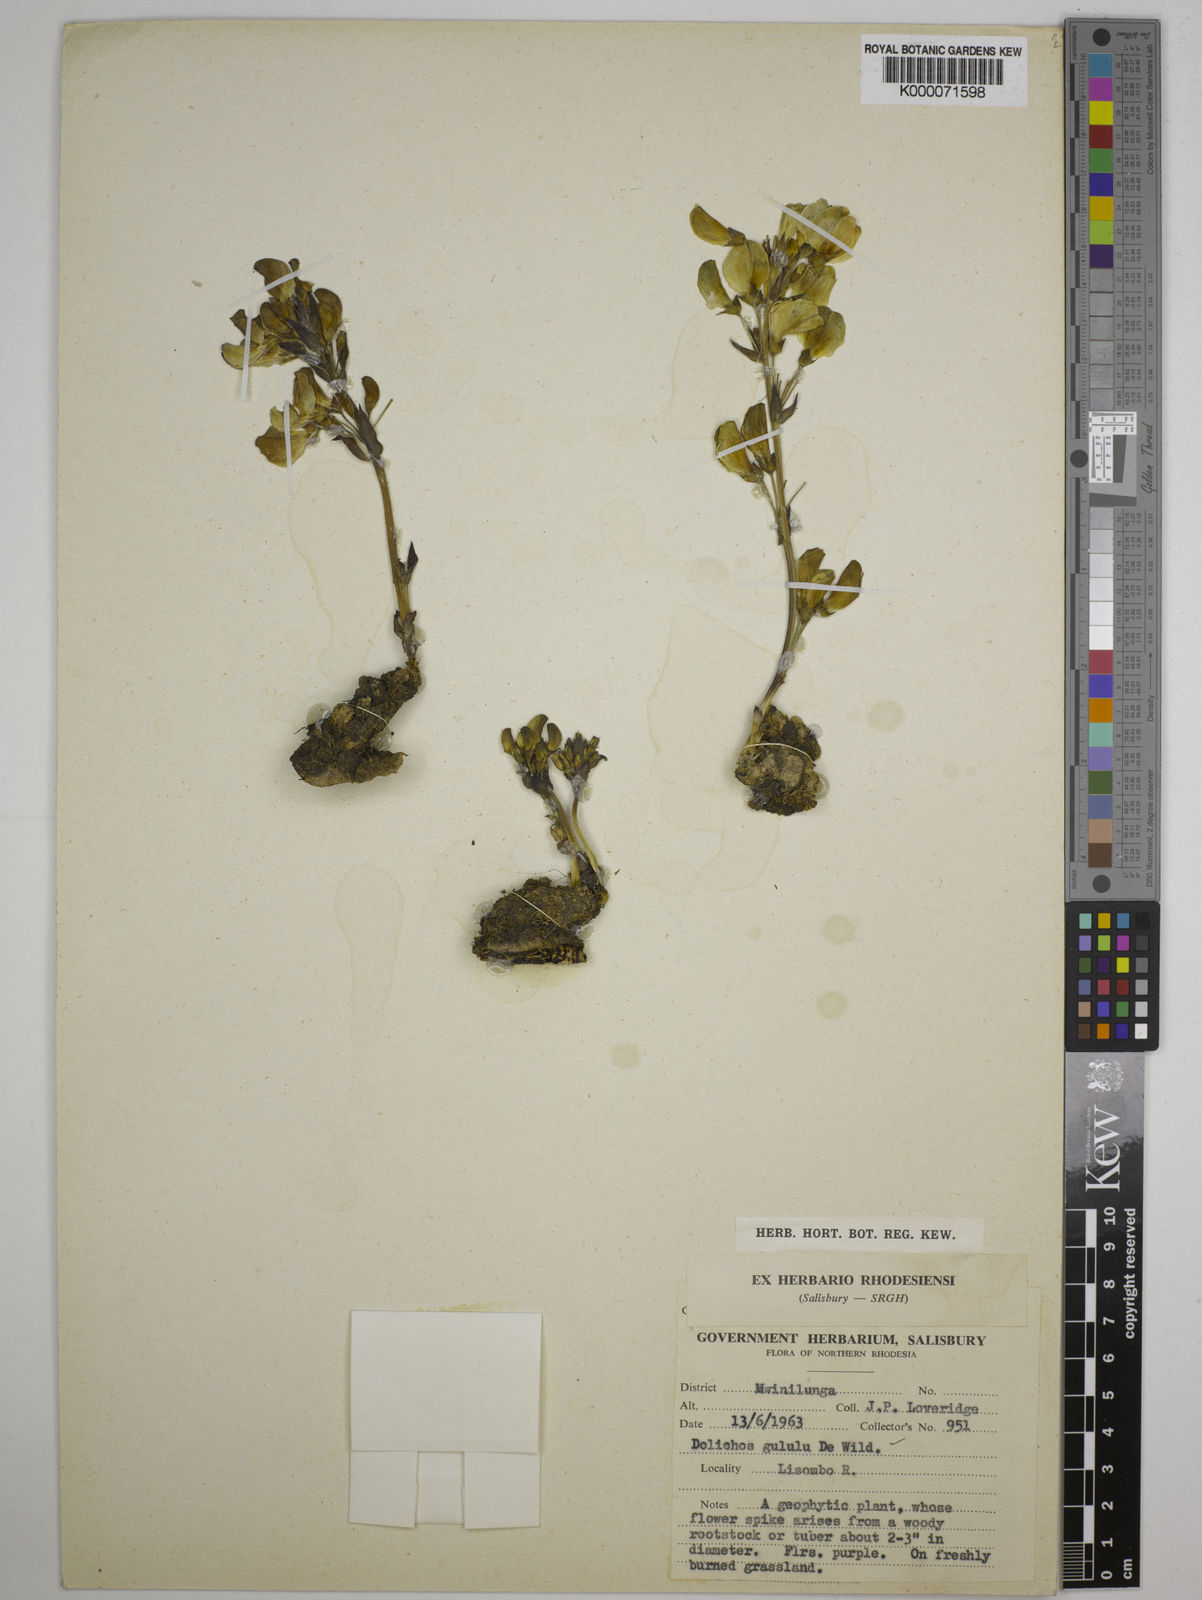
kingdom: Plantae
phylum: Tracheophyta
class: Magnoliopsida
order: Fabales
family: Fabaceae
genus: Dolichos
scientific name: Dolichos gululu
